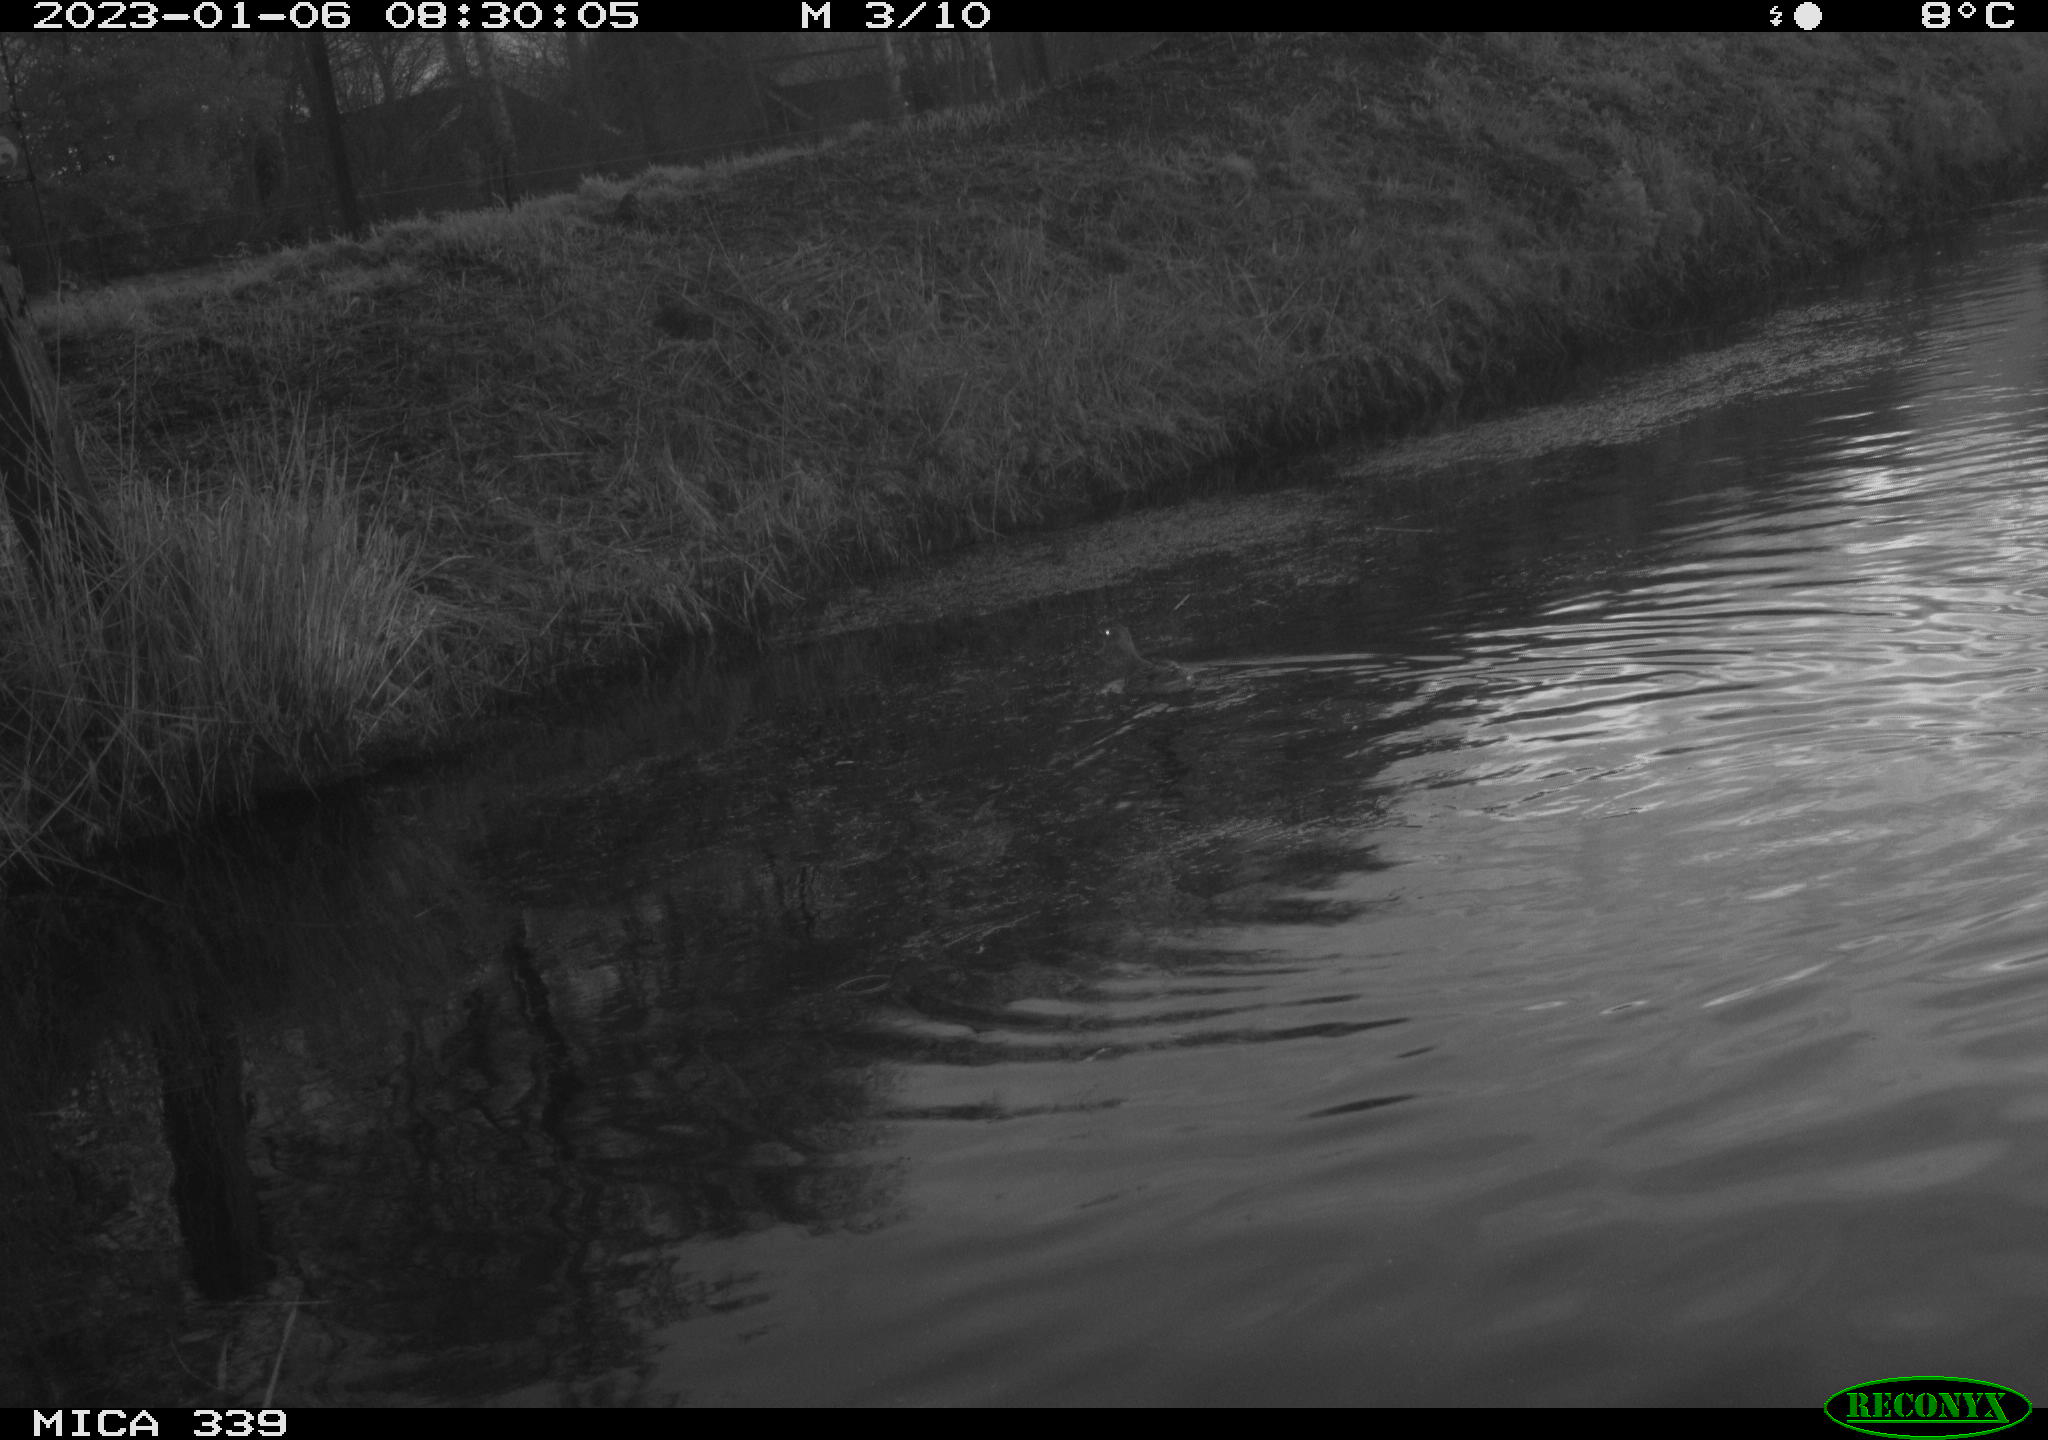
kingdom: Animalia
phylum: Chordata
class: Aves
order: Anseriformes
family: Anatidae
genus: Anas
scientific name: Anas
